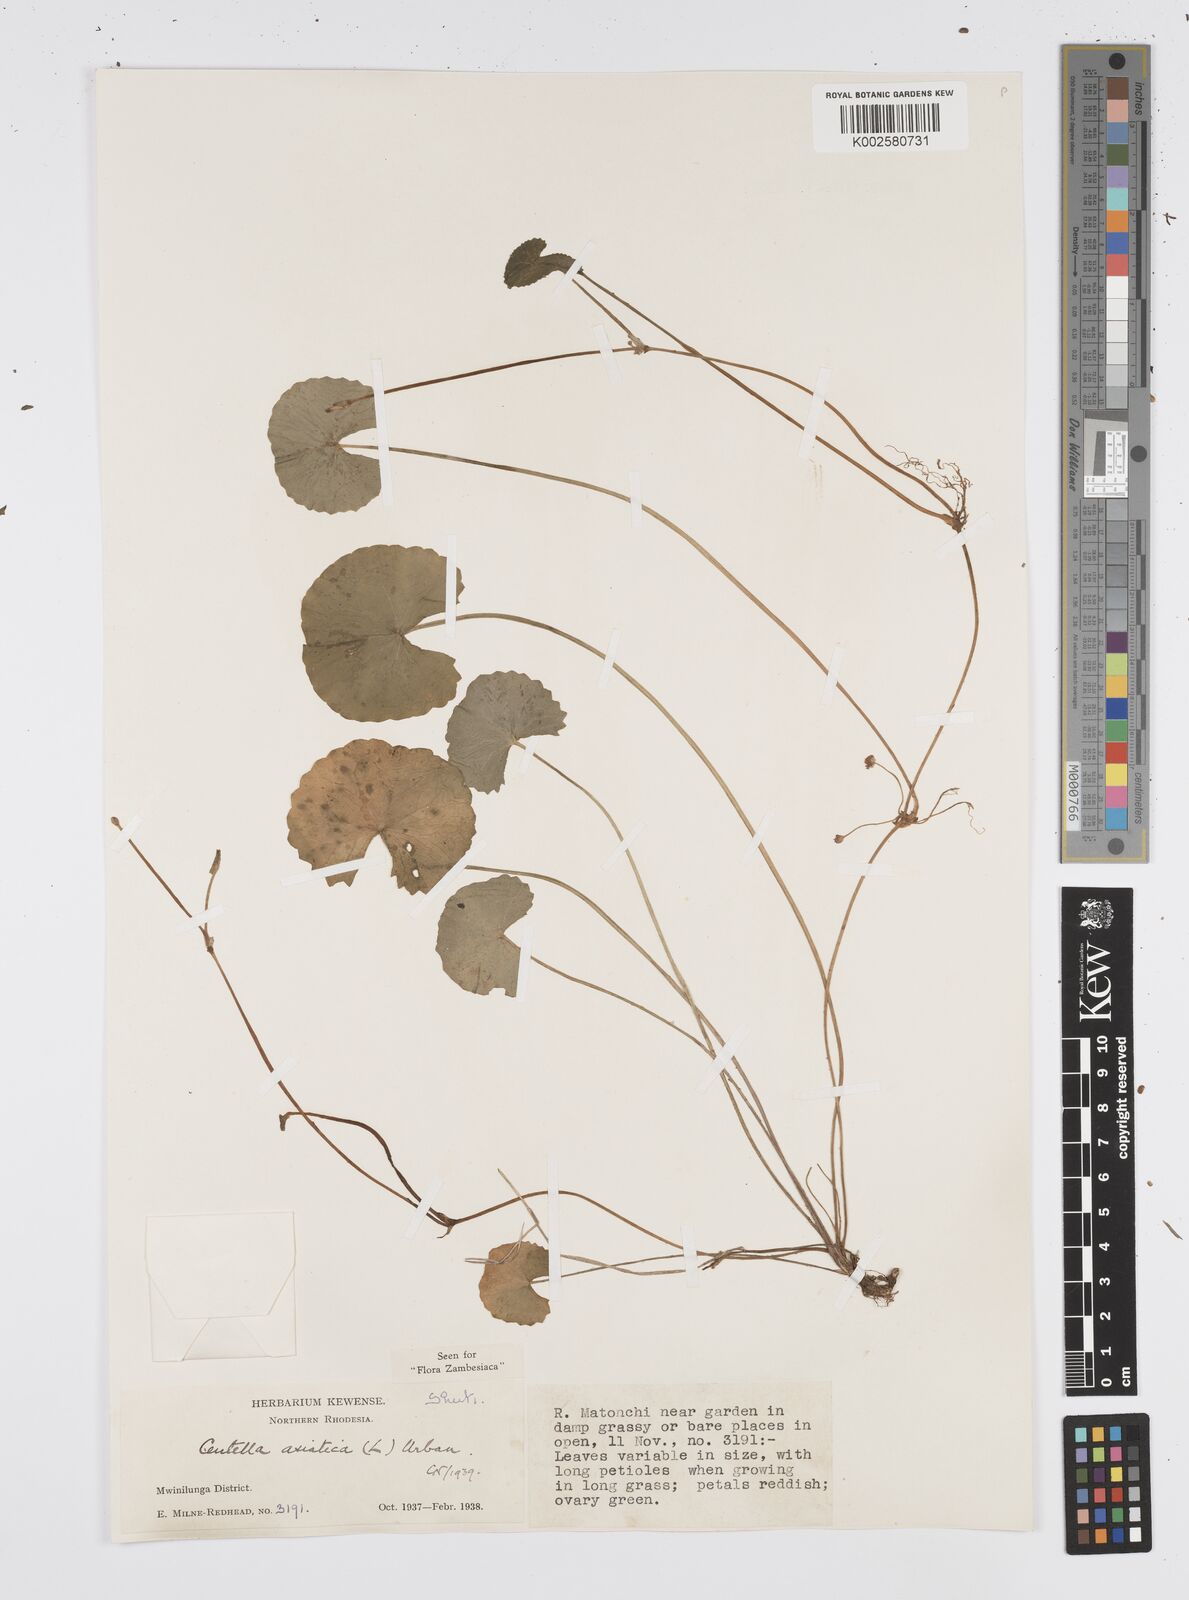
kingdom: Plantae
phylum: Tracheophyta
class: Magnoliopsida
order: Apiales
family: Apiaceae
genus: Centella
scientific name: Centella asiatica
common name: Spadeleaf
